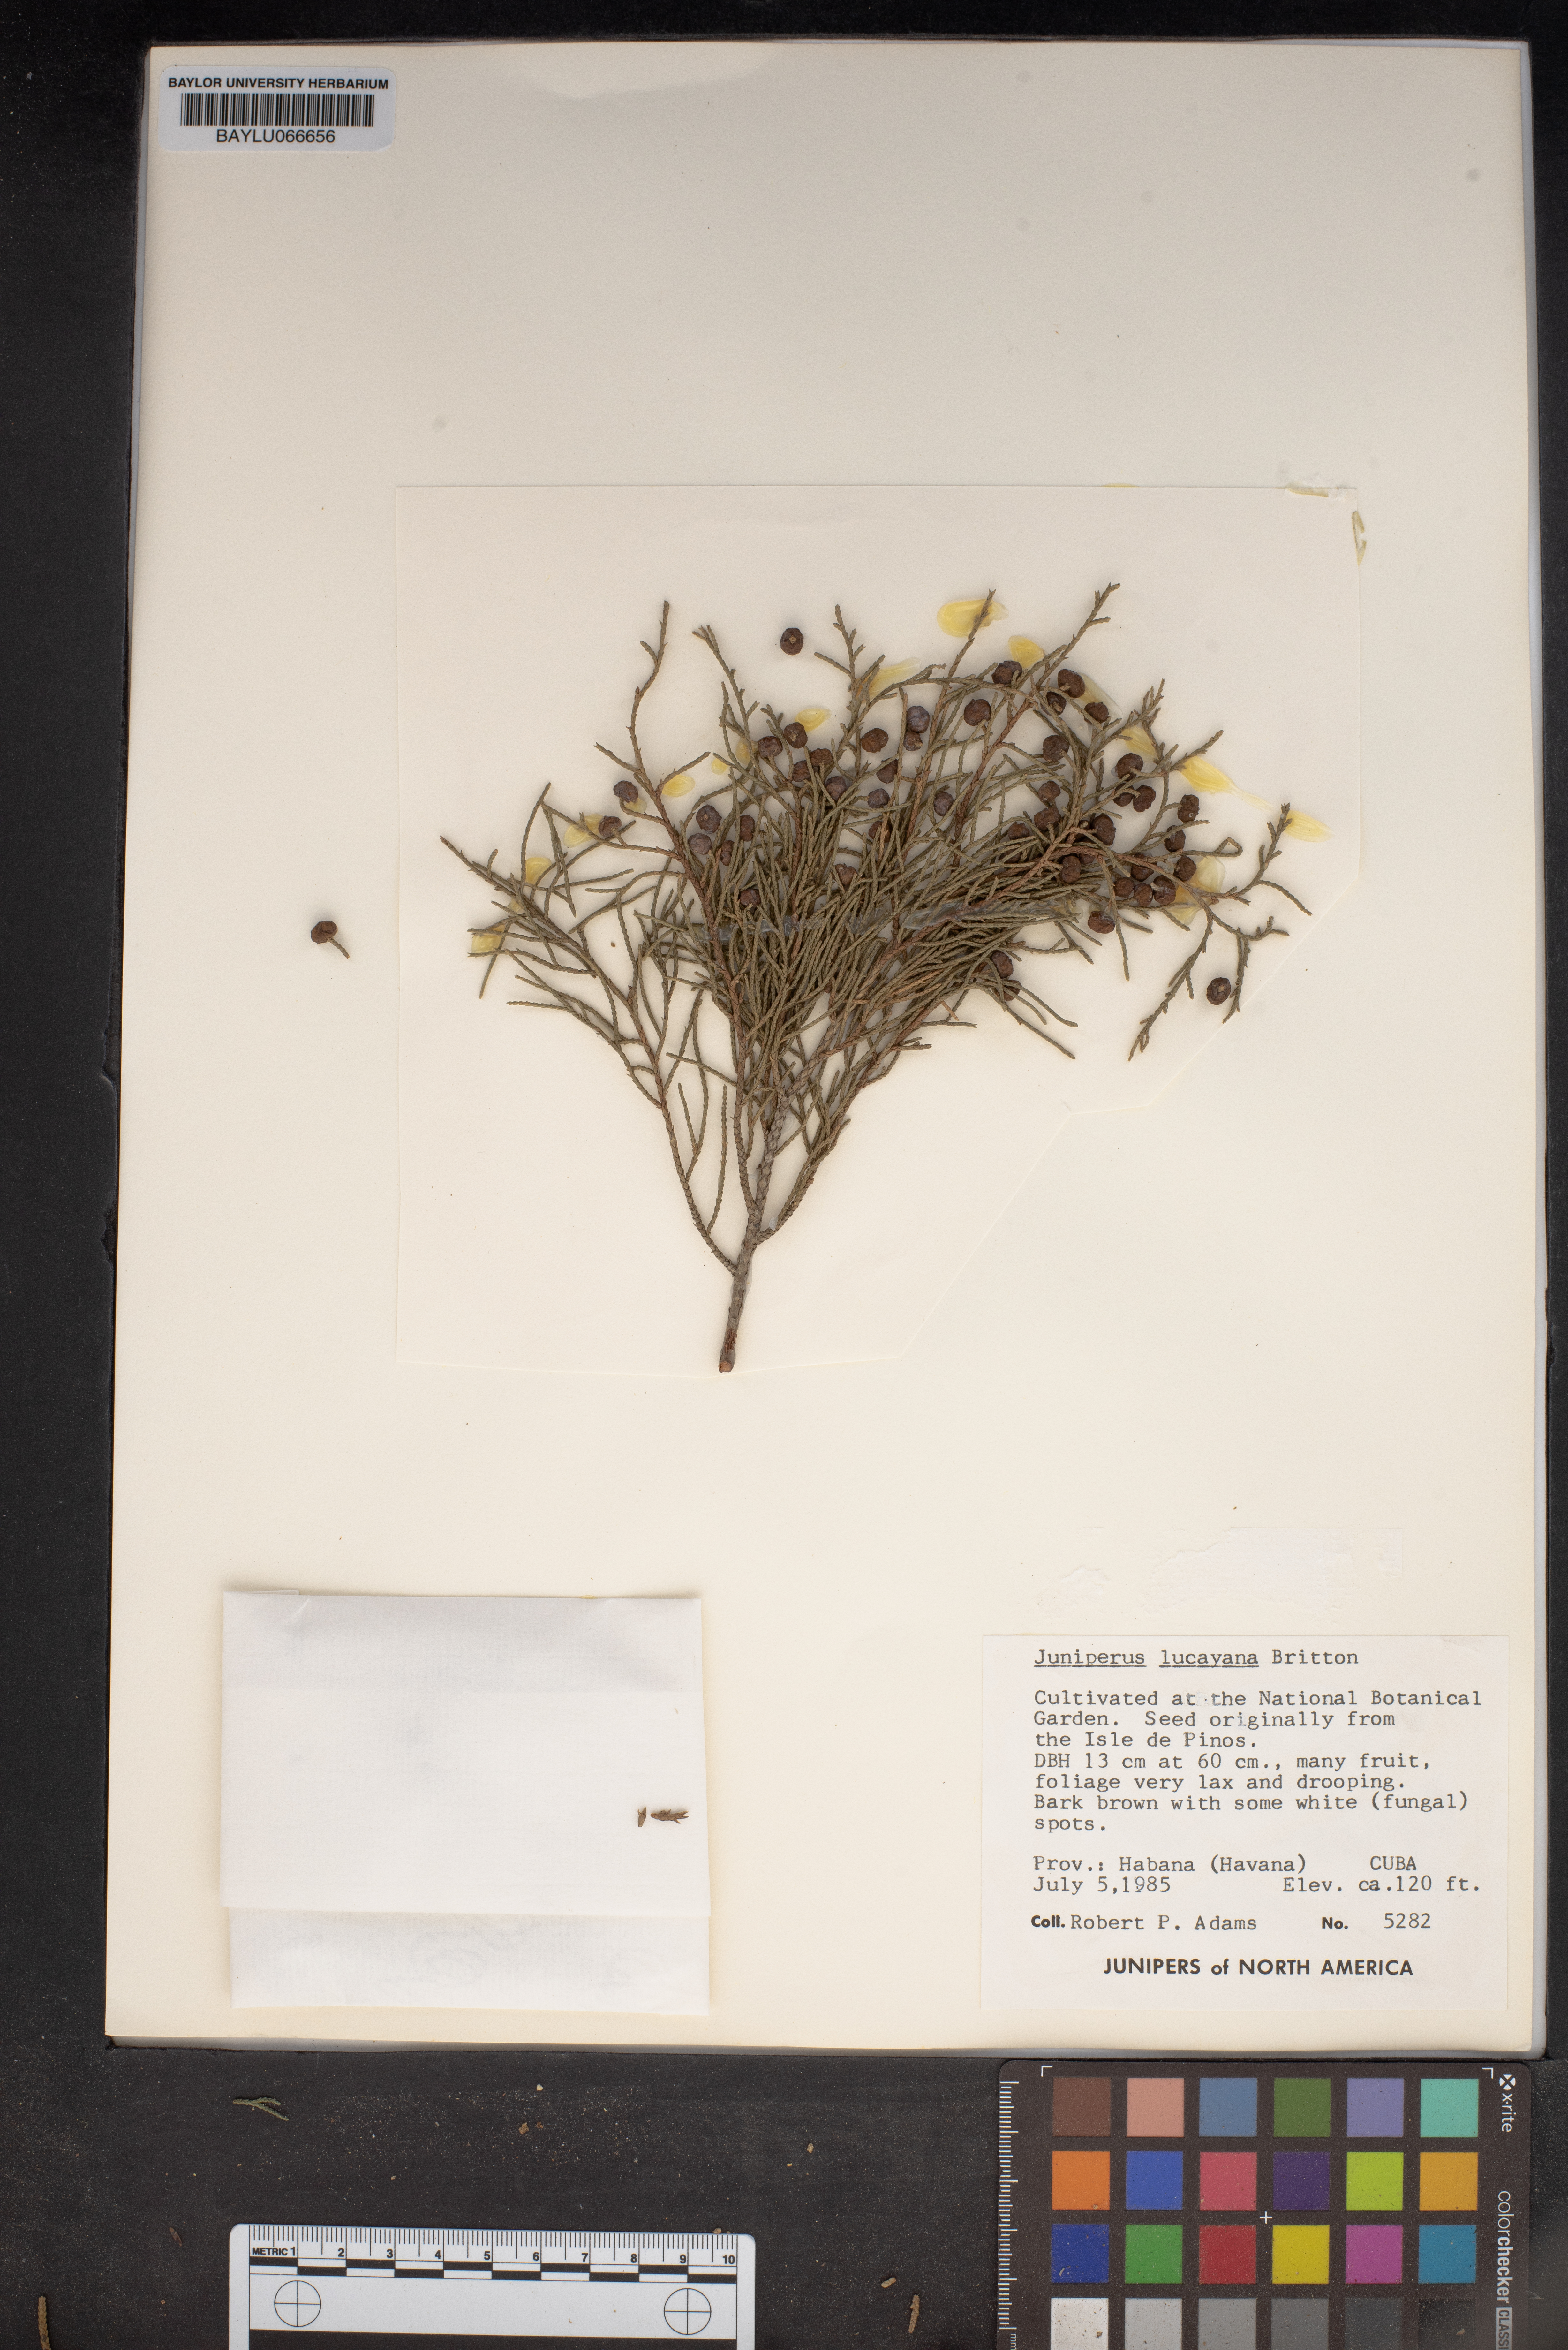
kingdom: Plantae
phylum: Tracheophyta
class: Pinopsida
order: Pinales
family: Cupressaceae
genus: Juniperus
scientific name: Juniperus barbadensis
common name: West indies juniper
